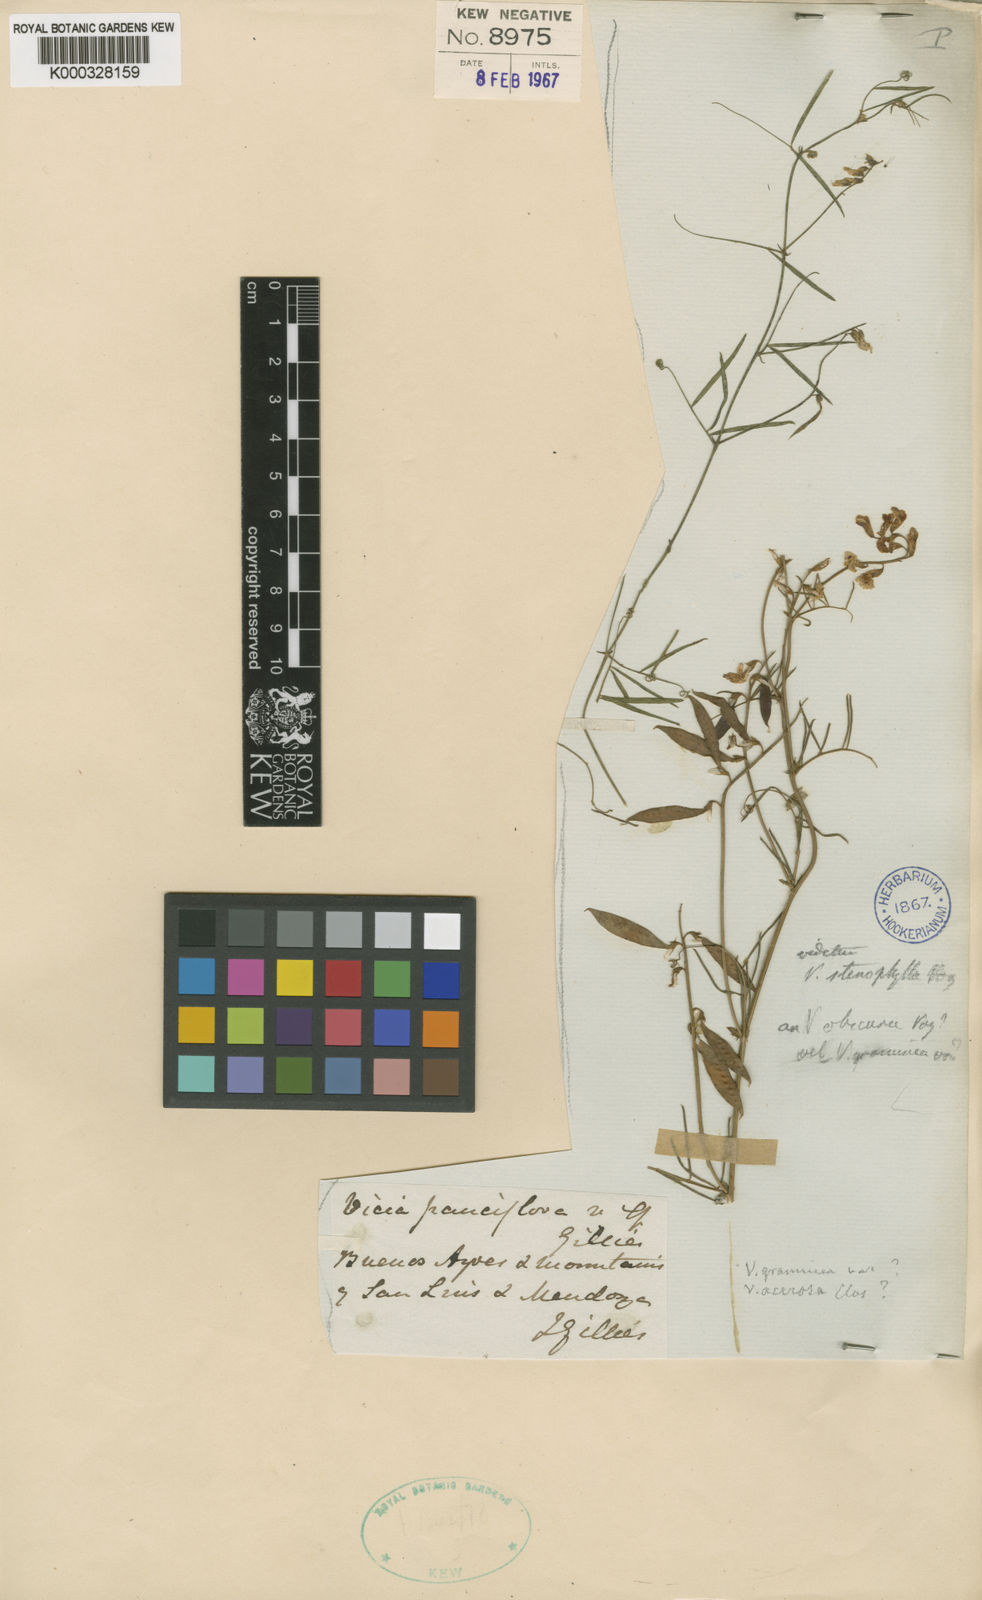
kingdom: Plantae
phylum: Tracheophyta
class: Magnoliopsida
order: Fabales
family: Fabaceae
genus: Vicia
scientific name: Vicia setifolia
